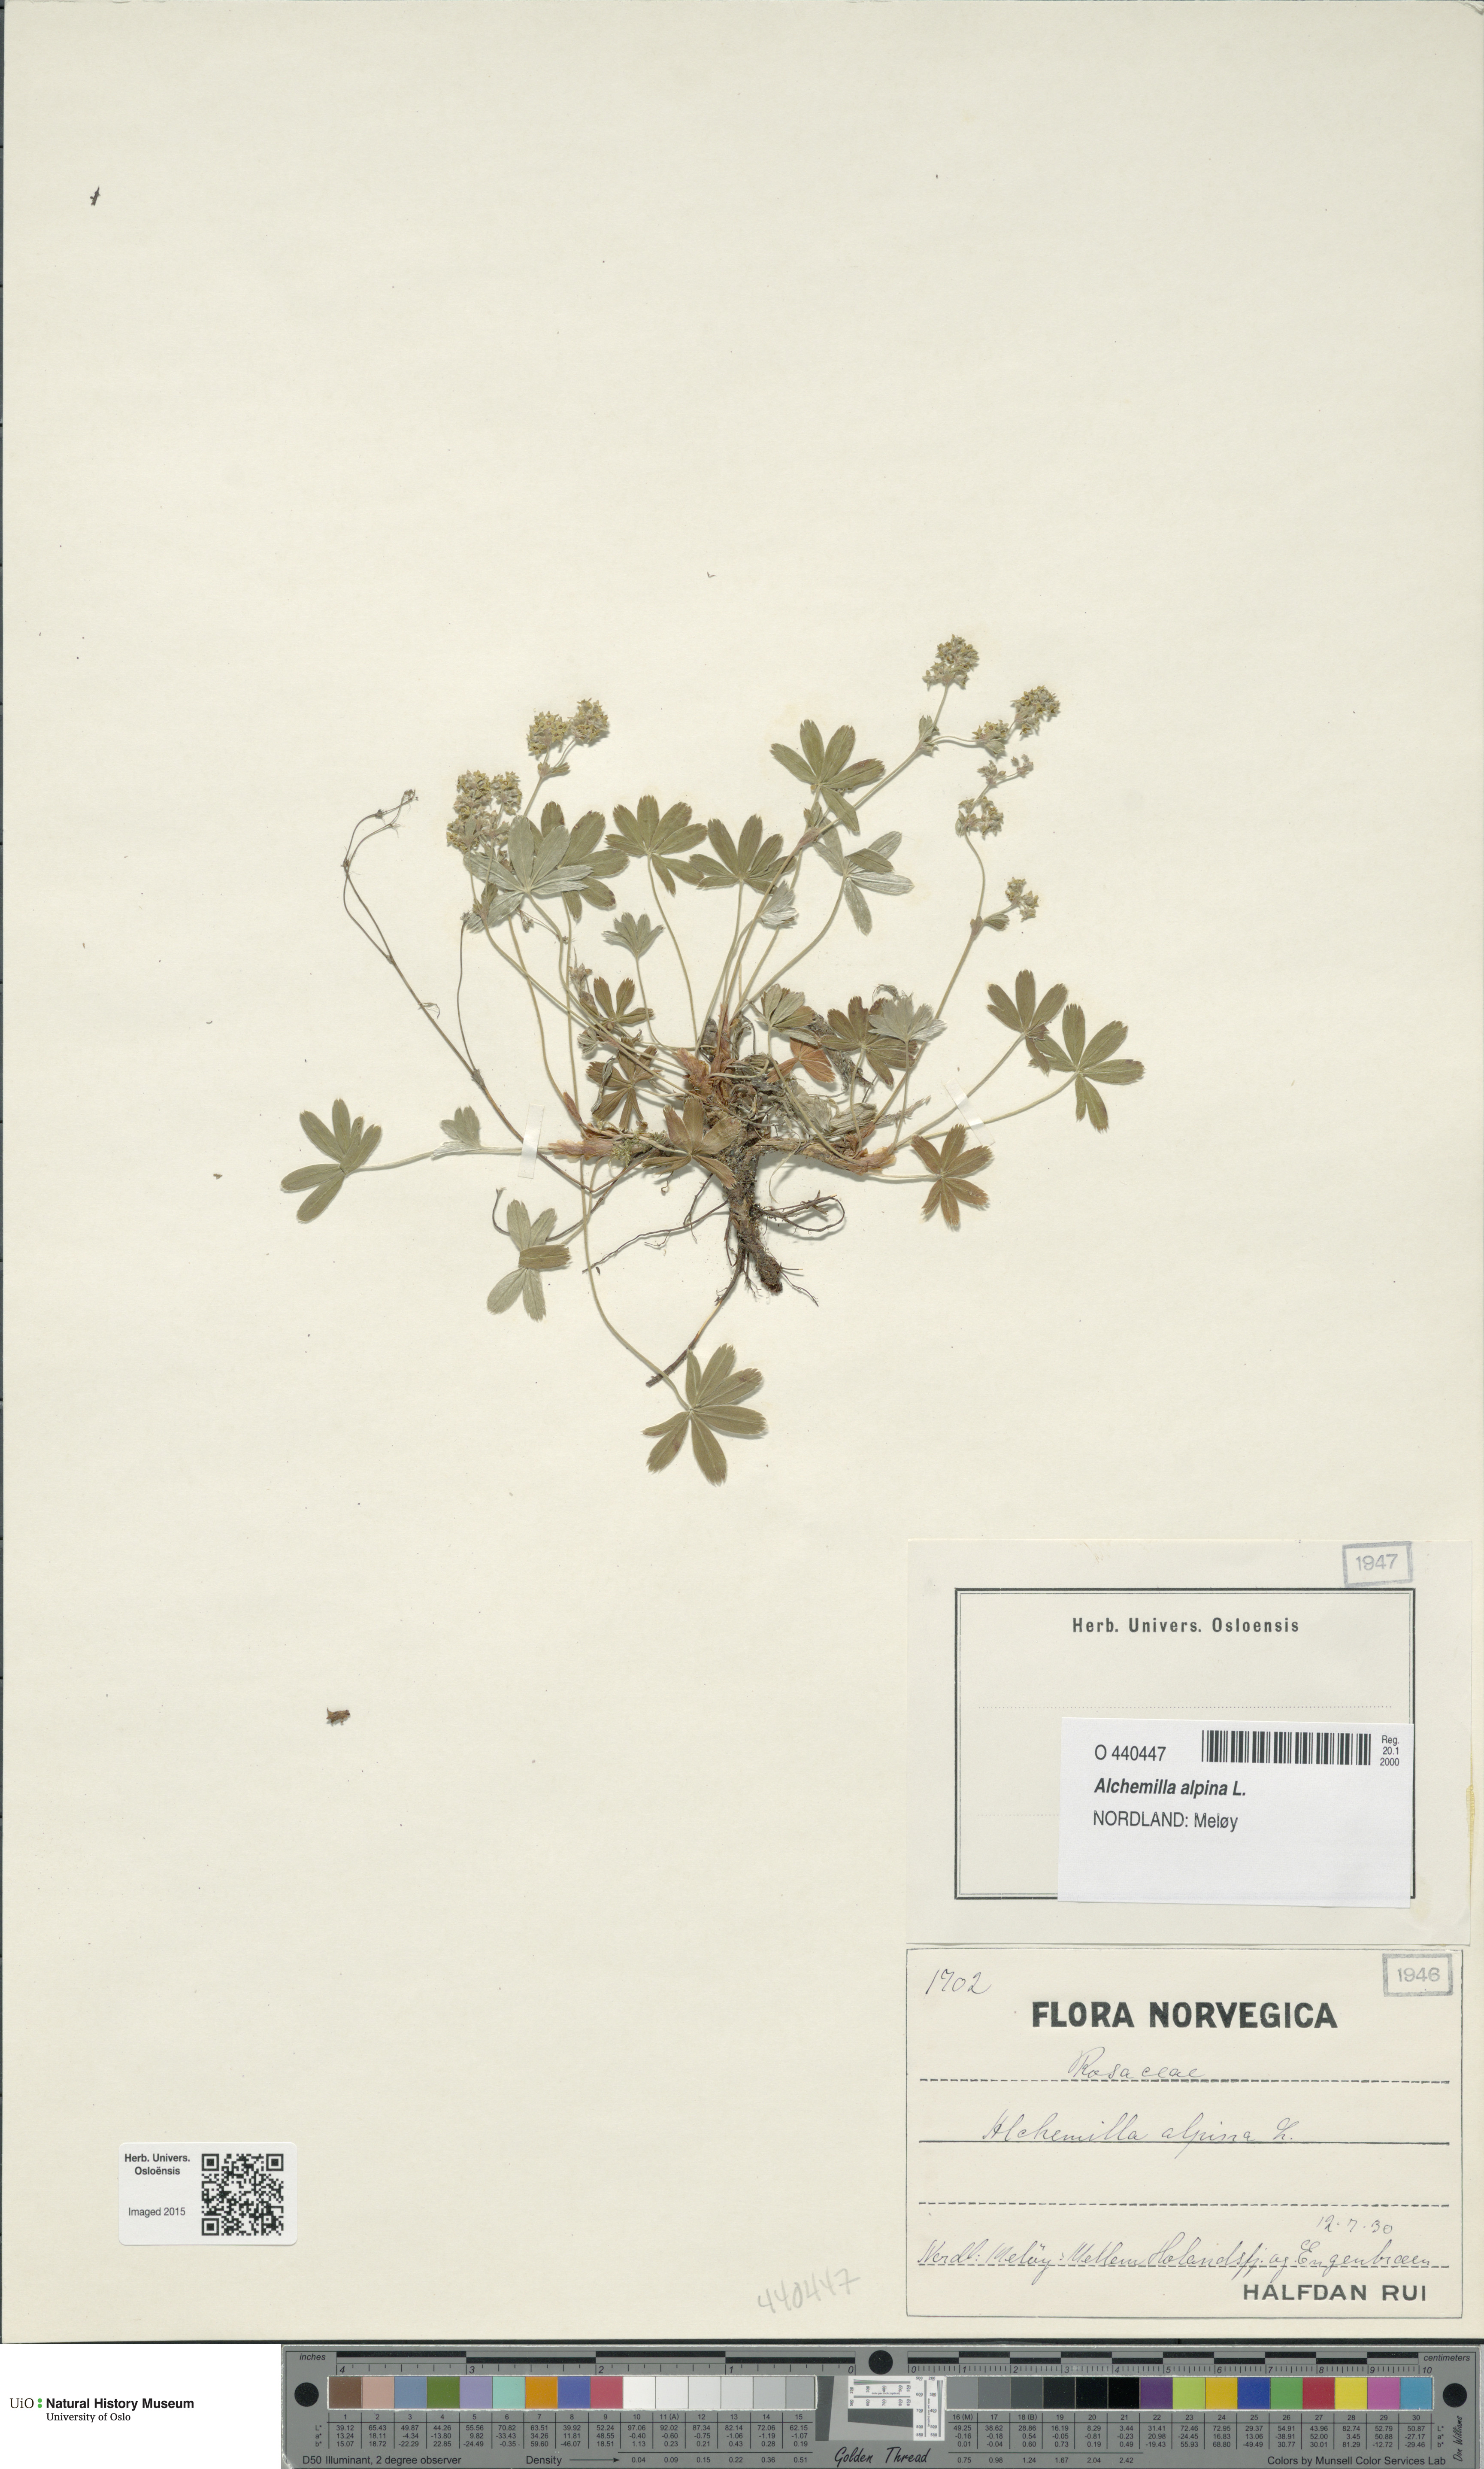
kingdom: Plantae
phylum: Tracheophyta
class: Magnoliopsida
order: Rosales
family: Rosaceae
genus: Alchemilla
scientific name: Alchemilla alpina
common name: Alpine lady's-mantle
